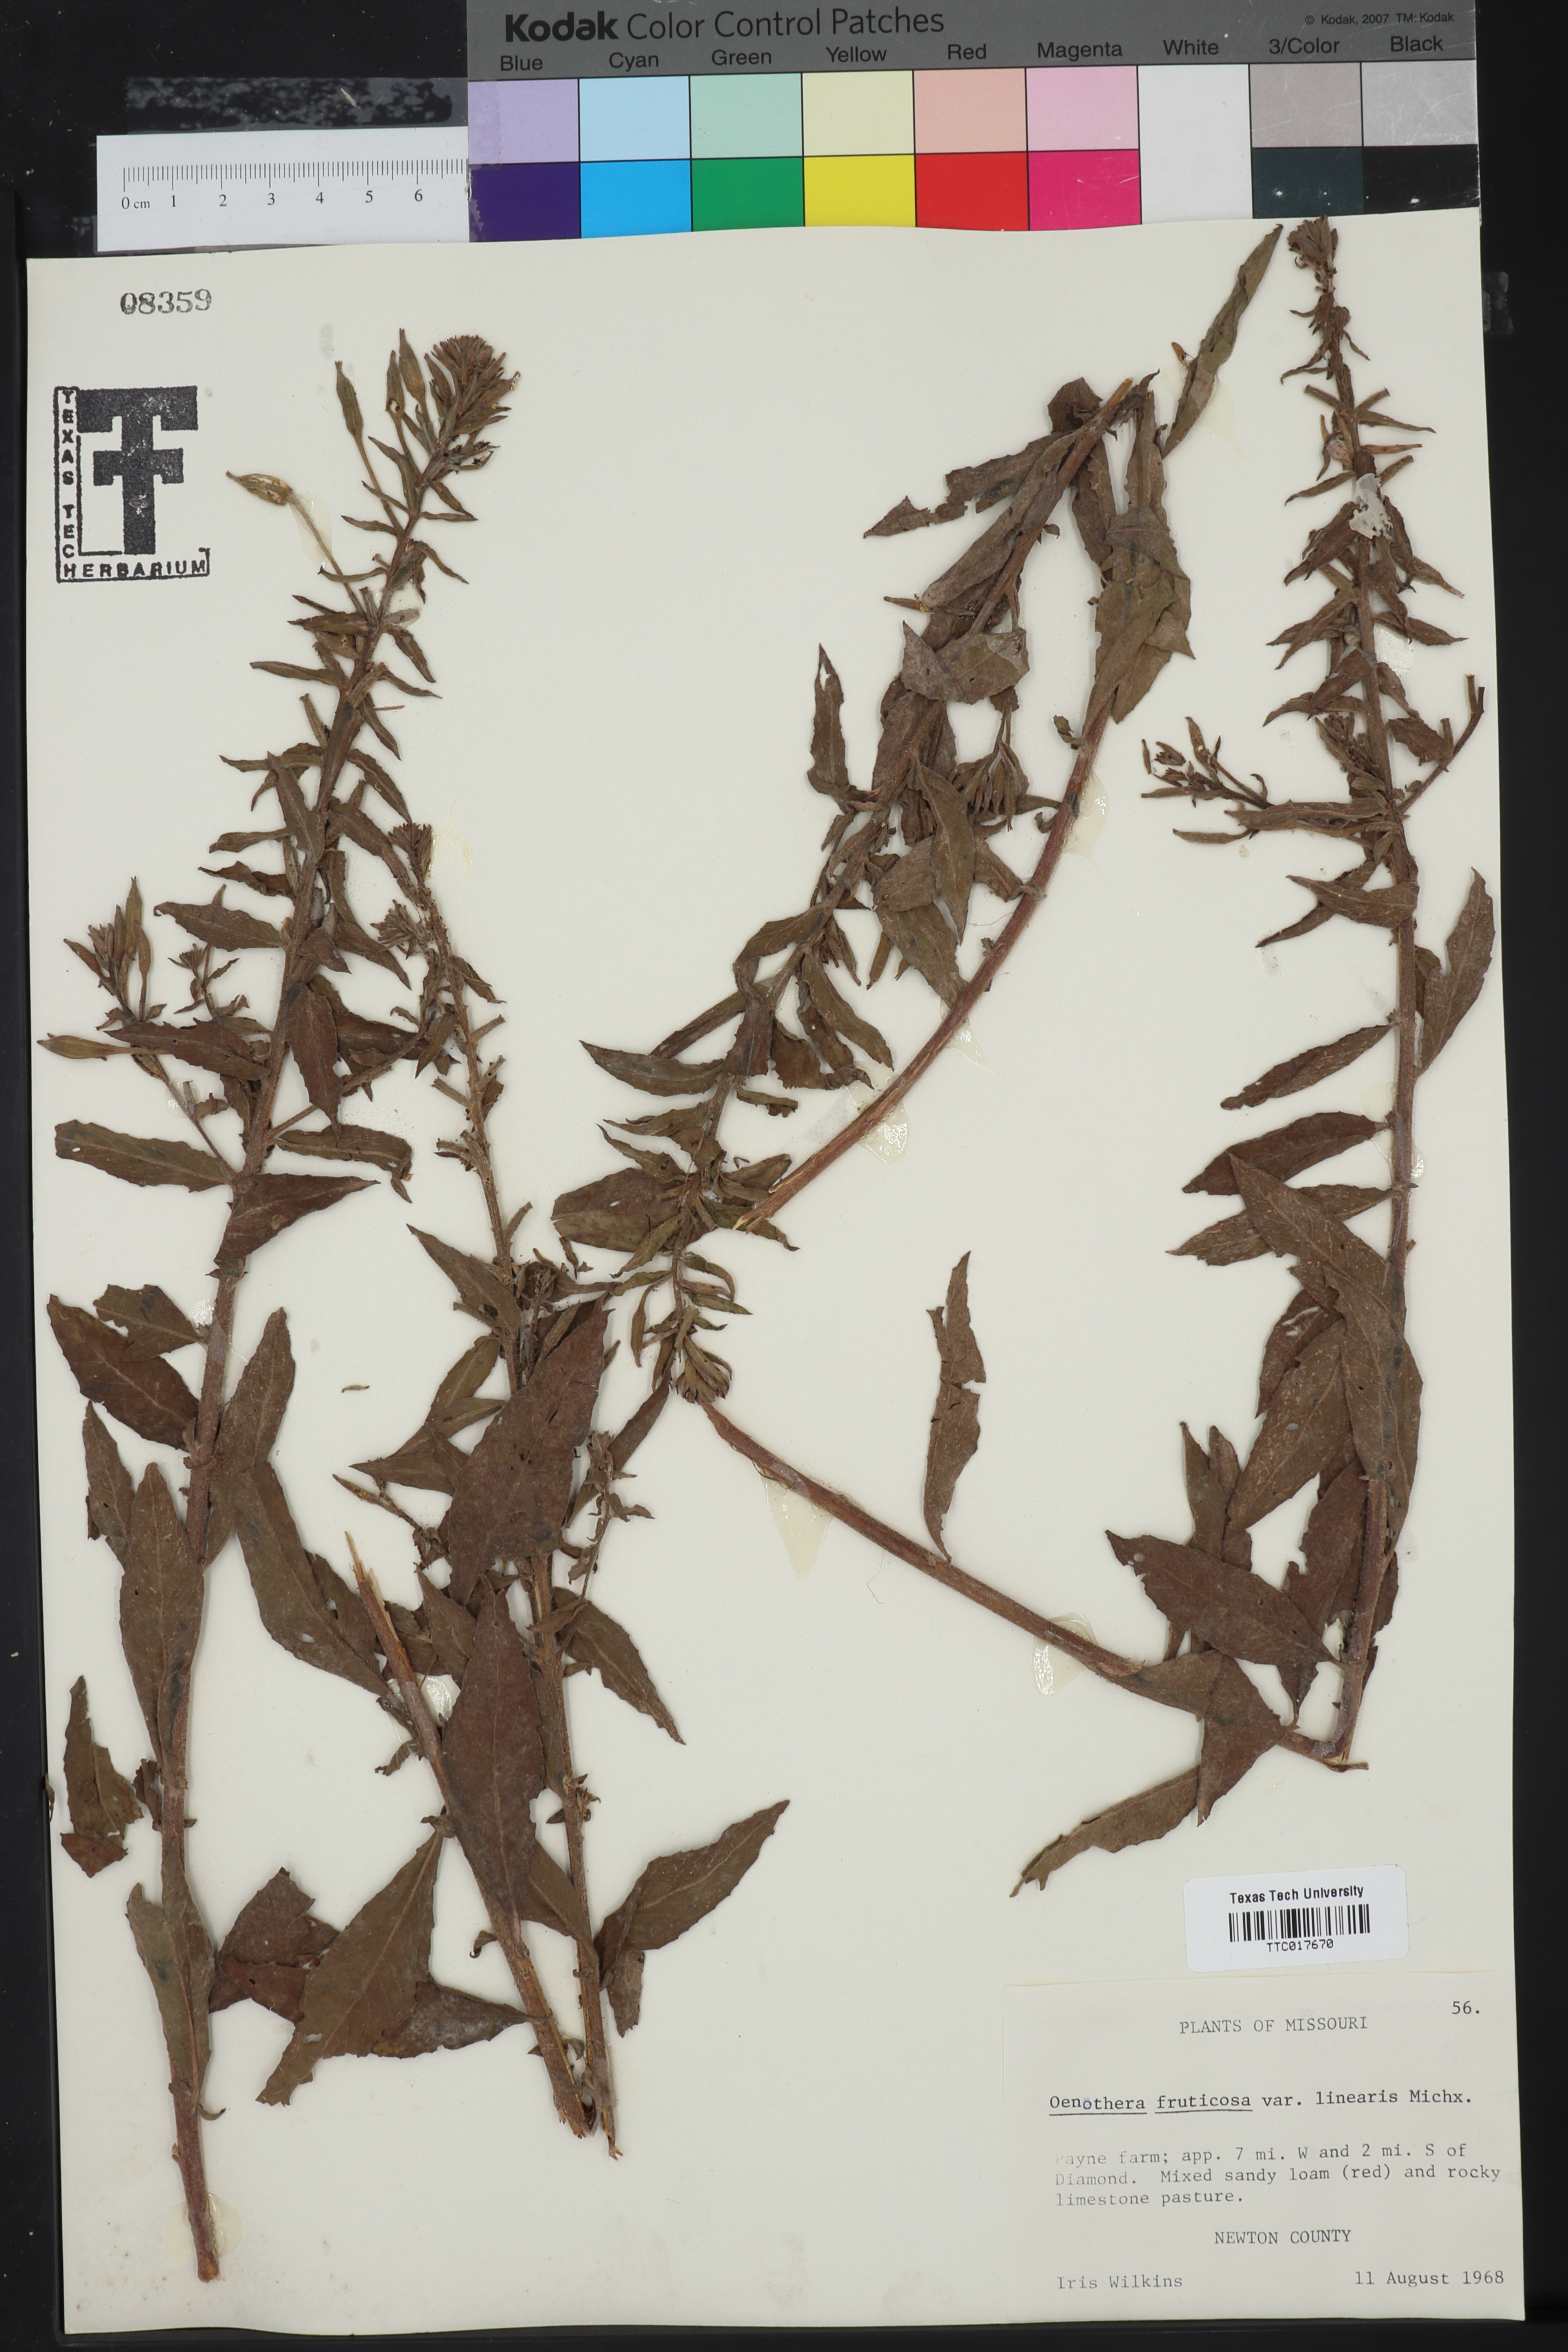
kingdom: Plantae
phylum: Tracheophyta
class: Magnoliopsida
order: Myrtales
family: Onagraceae
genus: Oenothera
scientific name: Oenothera fruticosa
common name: Southern sundrops
